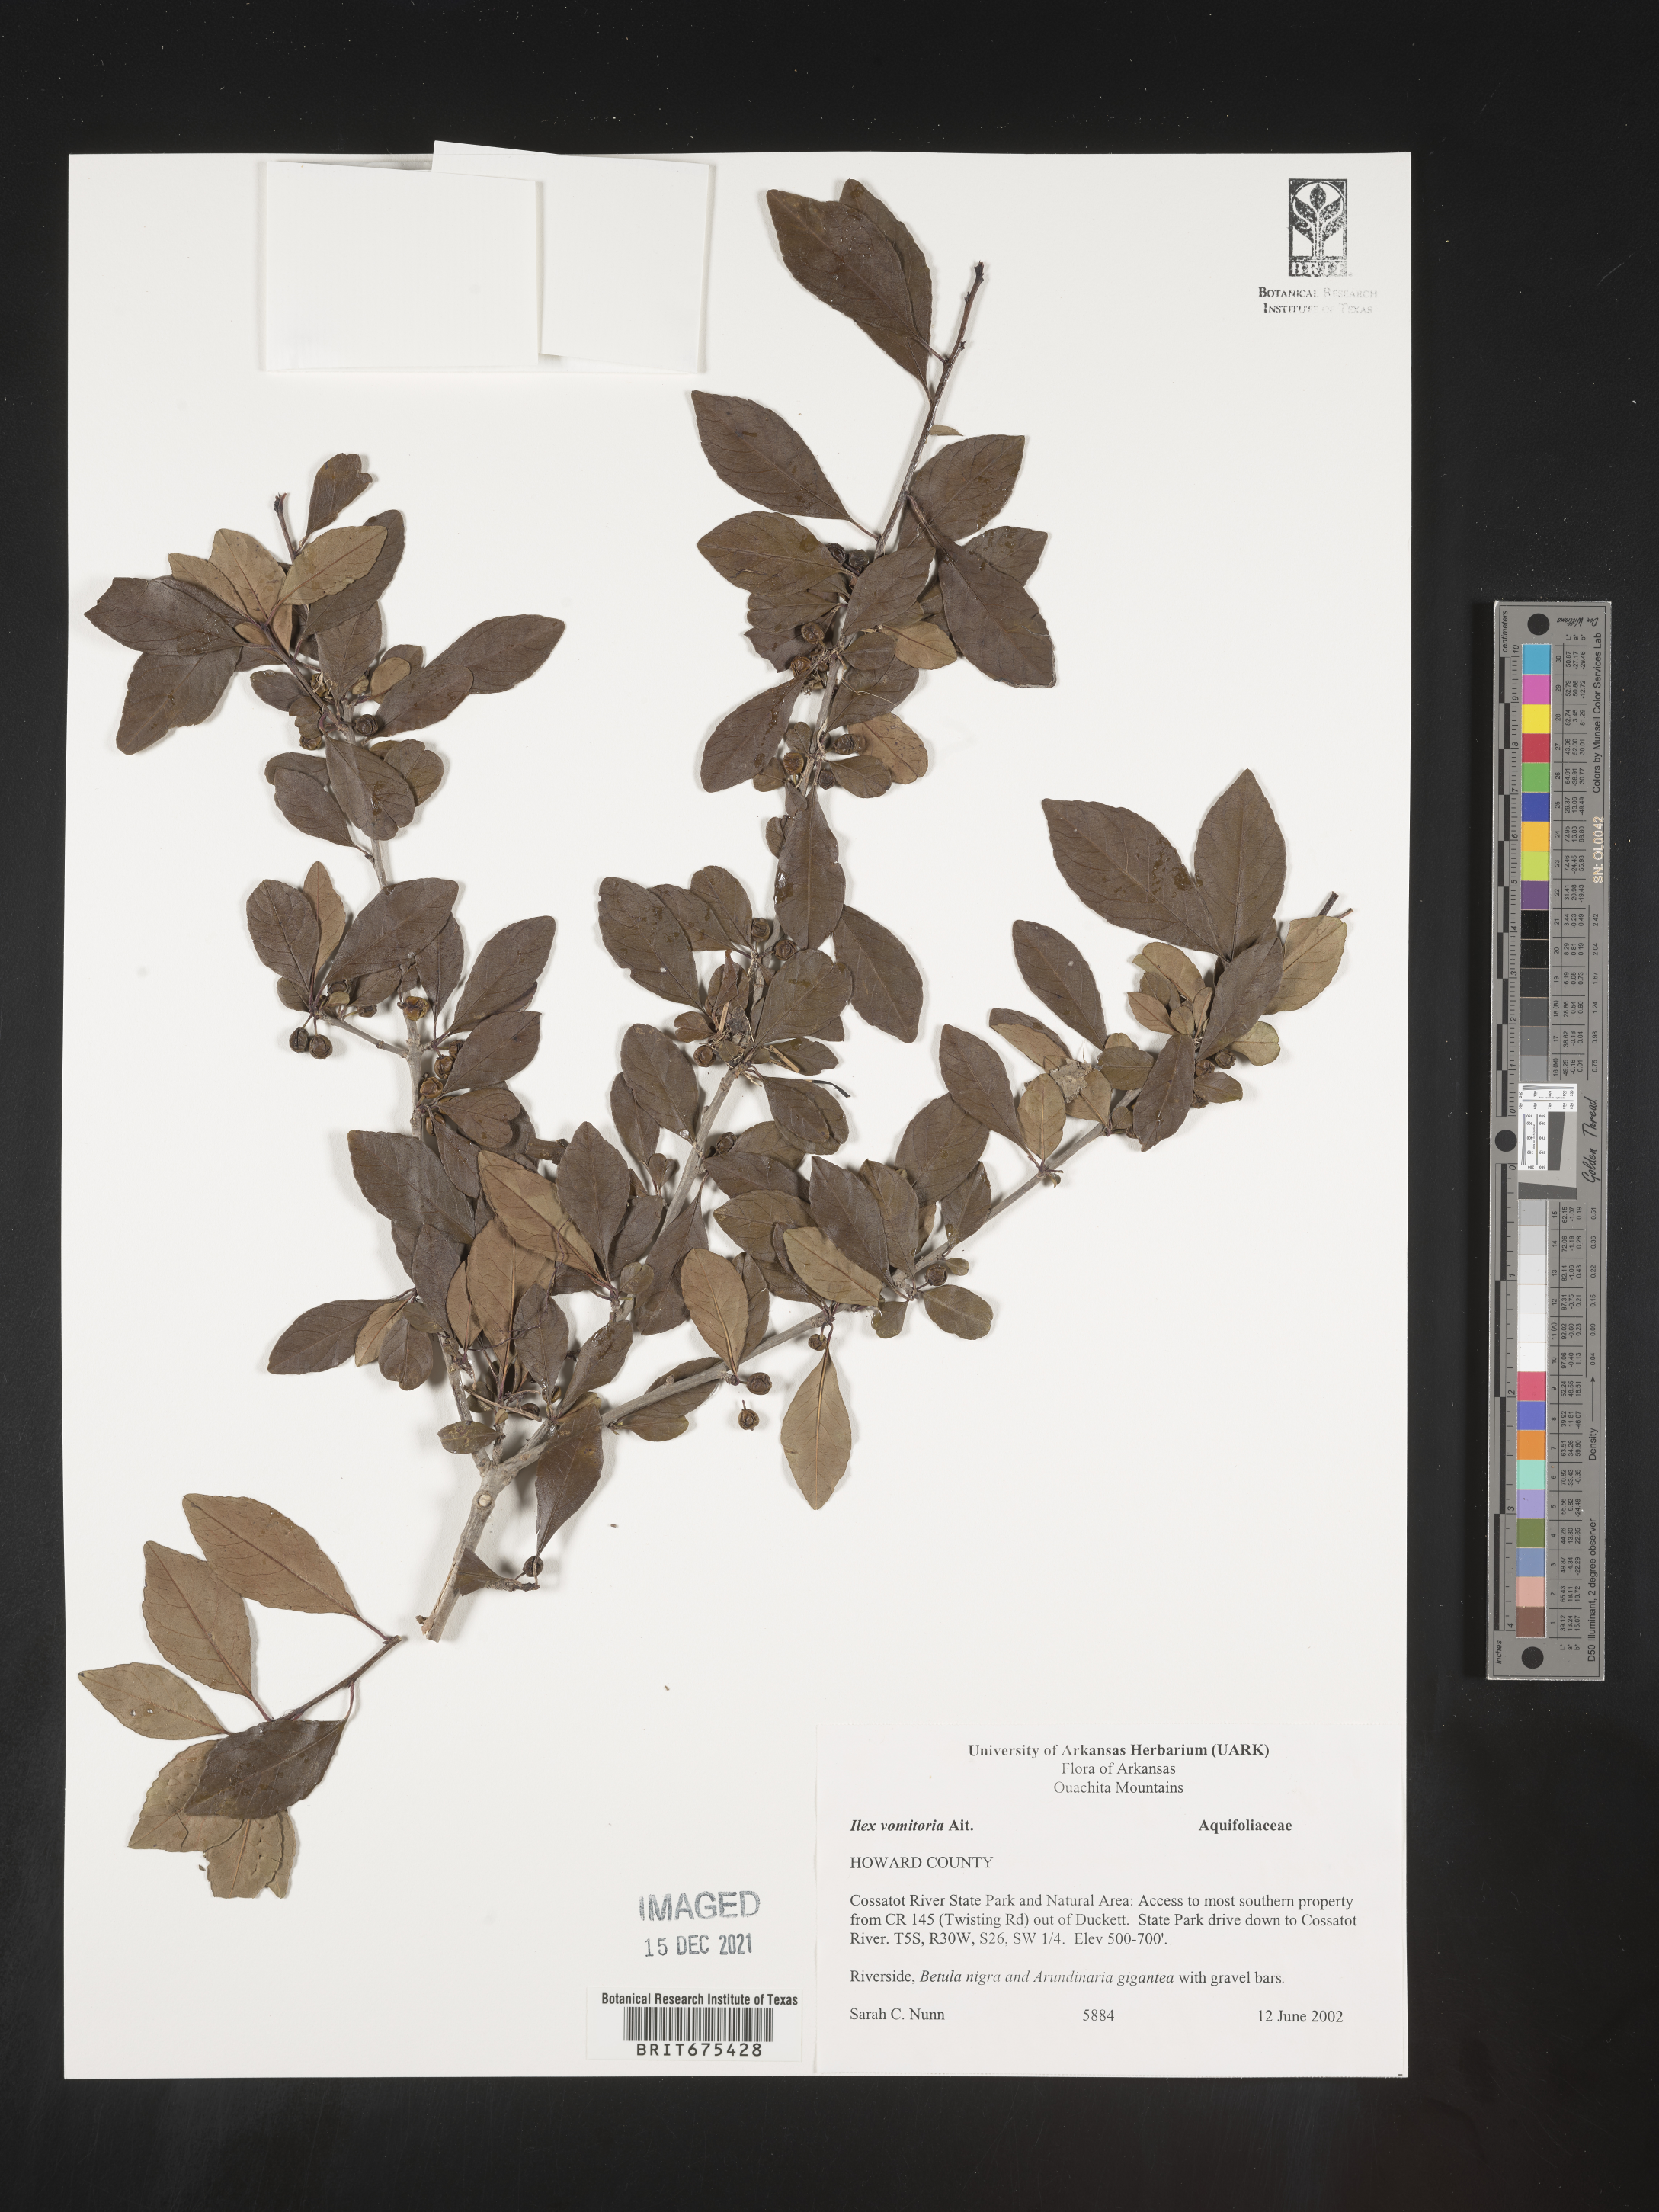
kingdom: Plantae
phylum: Tracheophyta
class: Magnoliopsida
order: Aquifoliales
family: Aquifoliaceae
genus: Ilex
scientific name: Ilex vomitoria
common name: Yaupon holly
